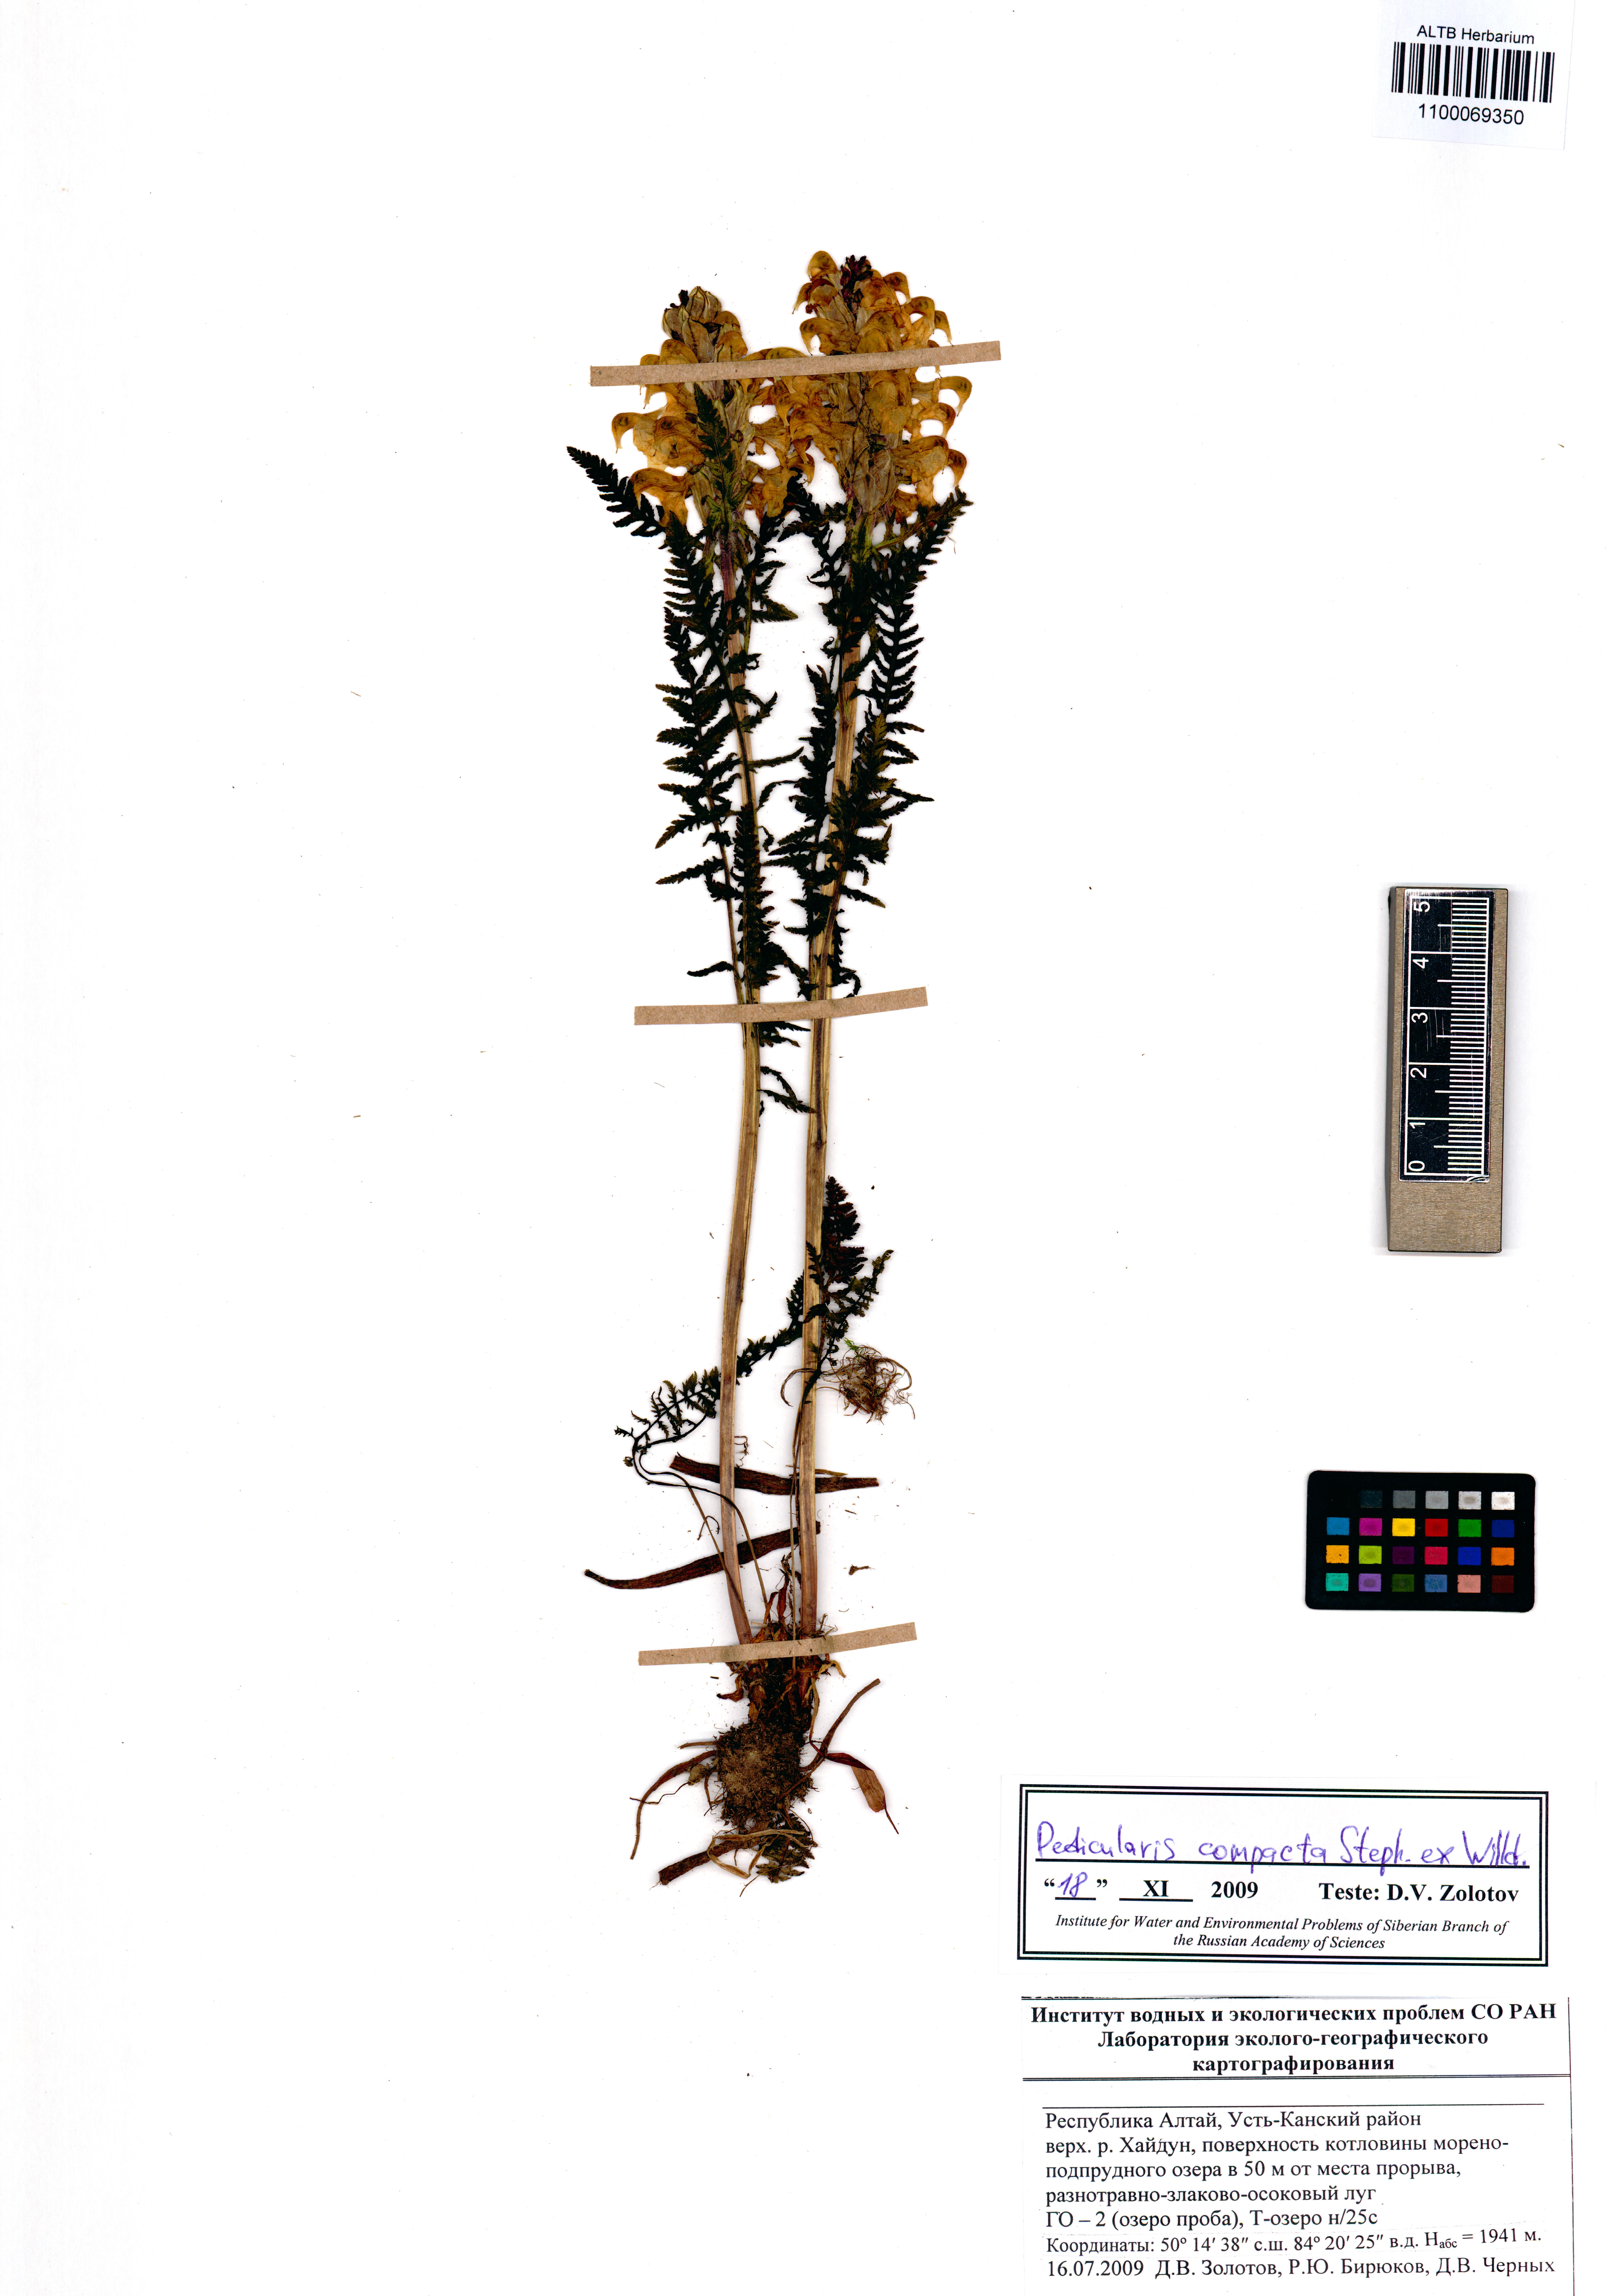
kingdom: Plantae
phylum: Tracheophyta
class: Magnoliopsida
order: Lamiales
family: Orobanchaceae
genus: Pedicularis
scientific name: Pedicularis compacta
